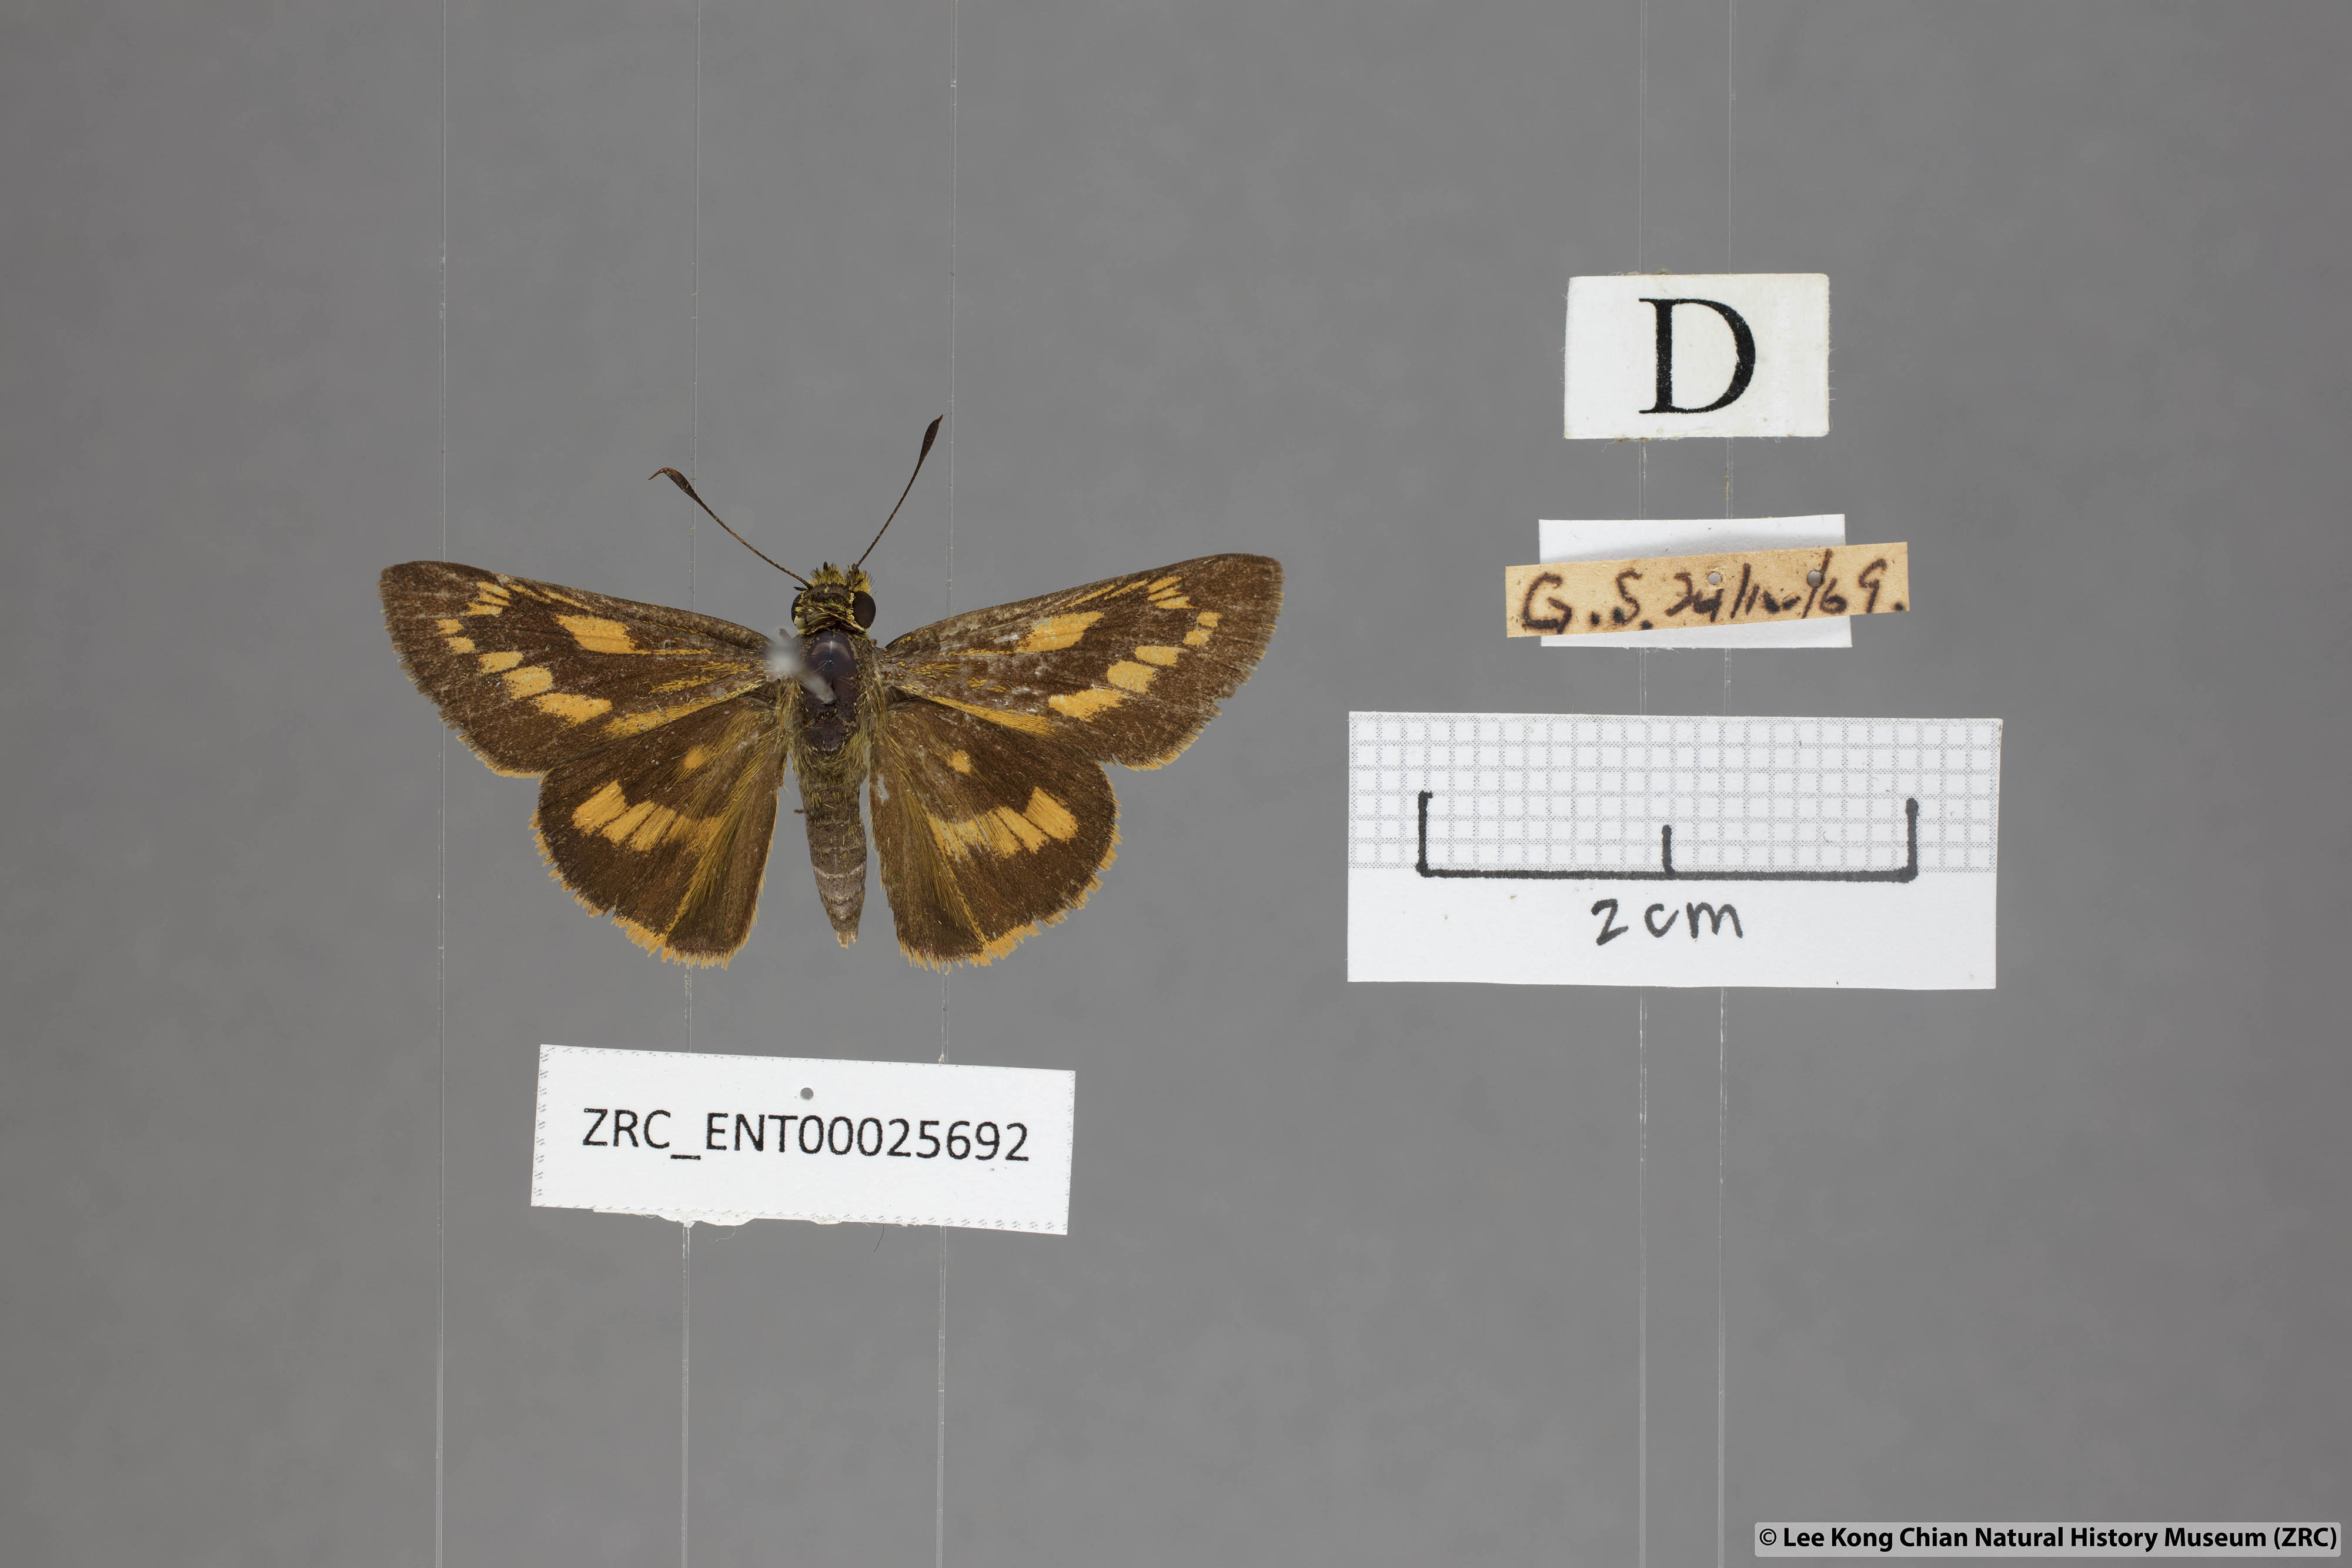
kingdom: Animalia
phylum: Arthropoda
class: Insecta
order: Lepidoptera
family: Hesperiidae
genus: Telicota
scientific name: Telicota ohara
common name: Dark palm dart
